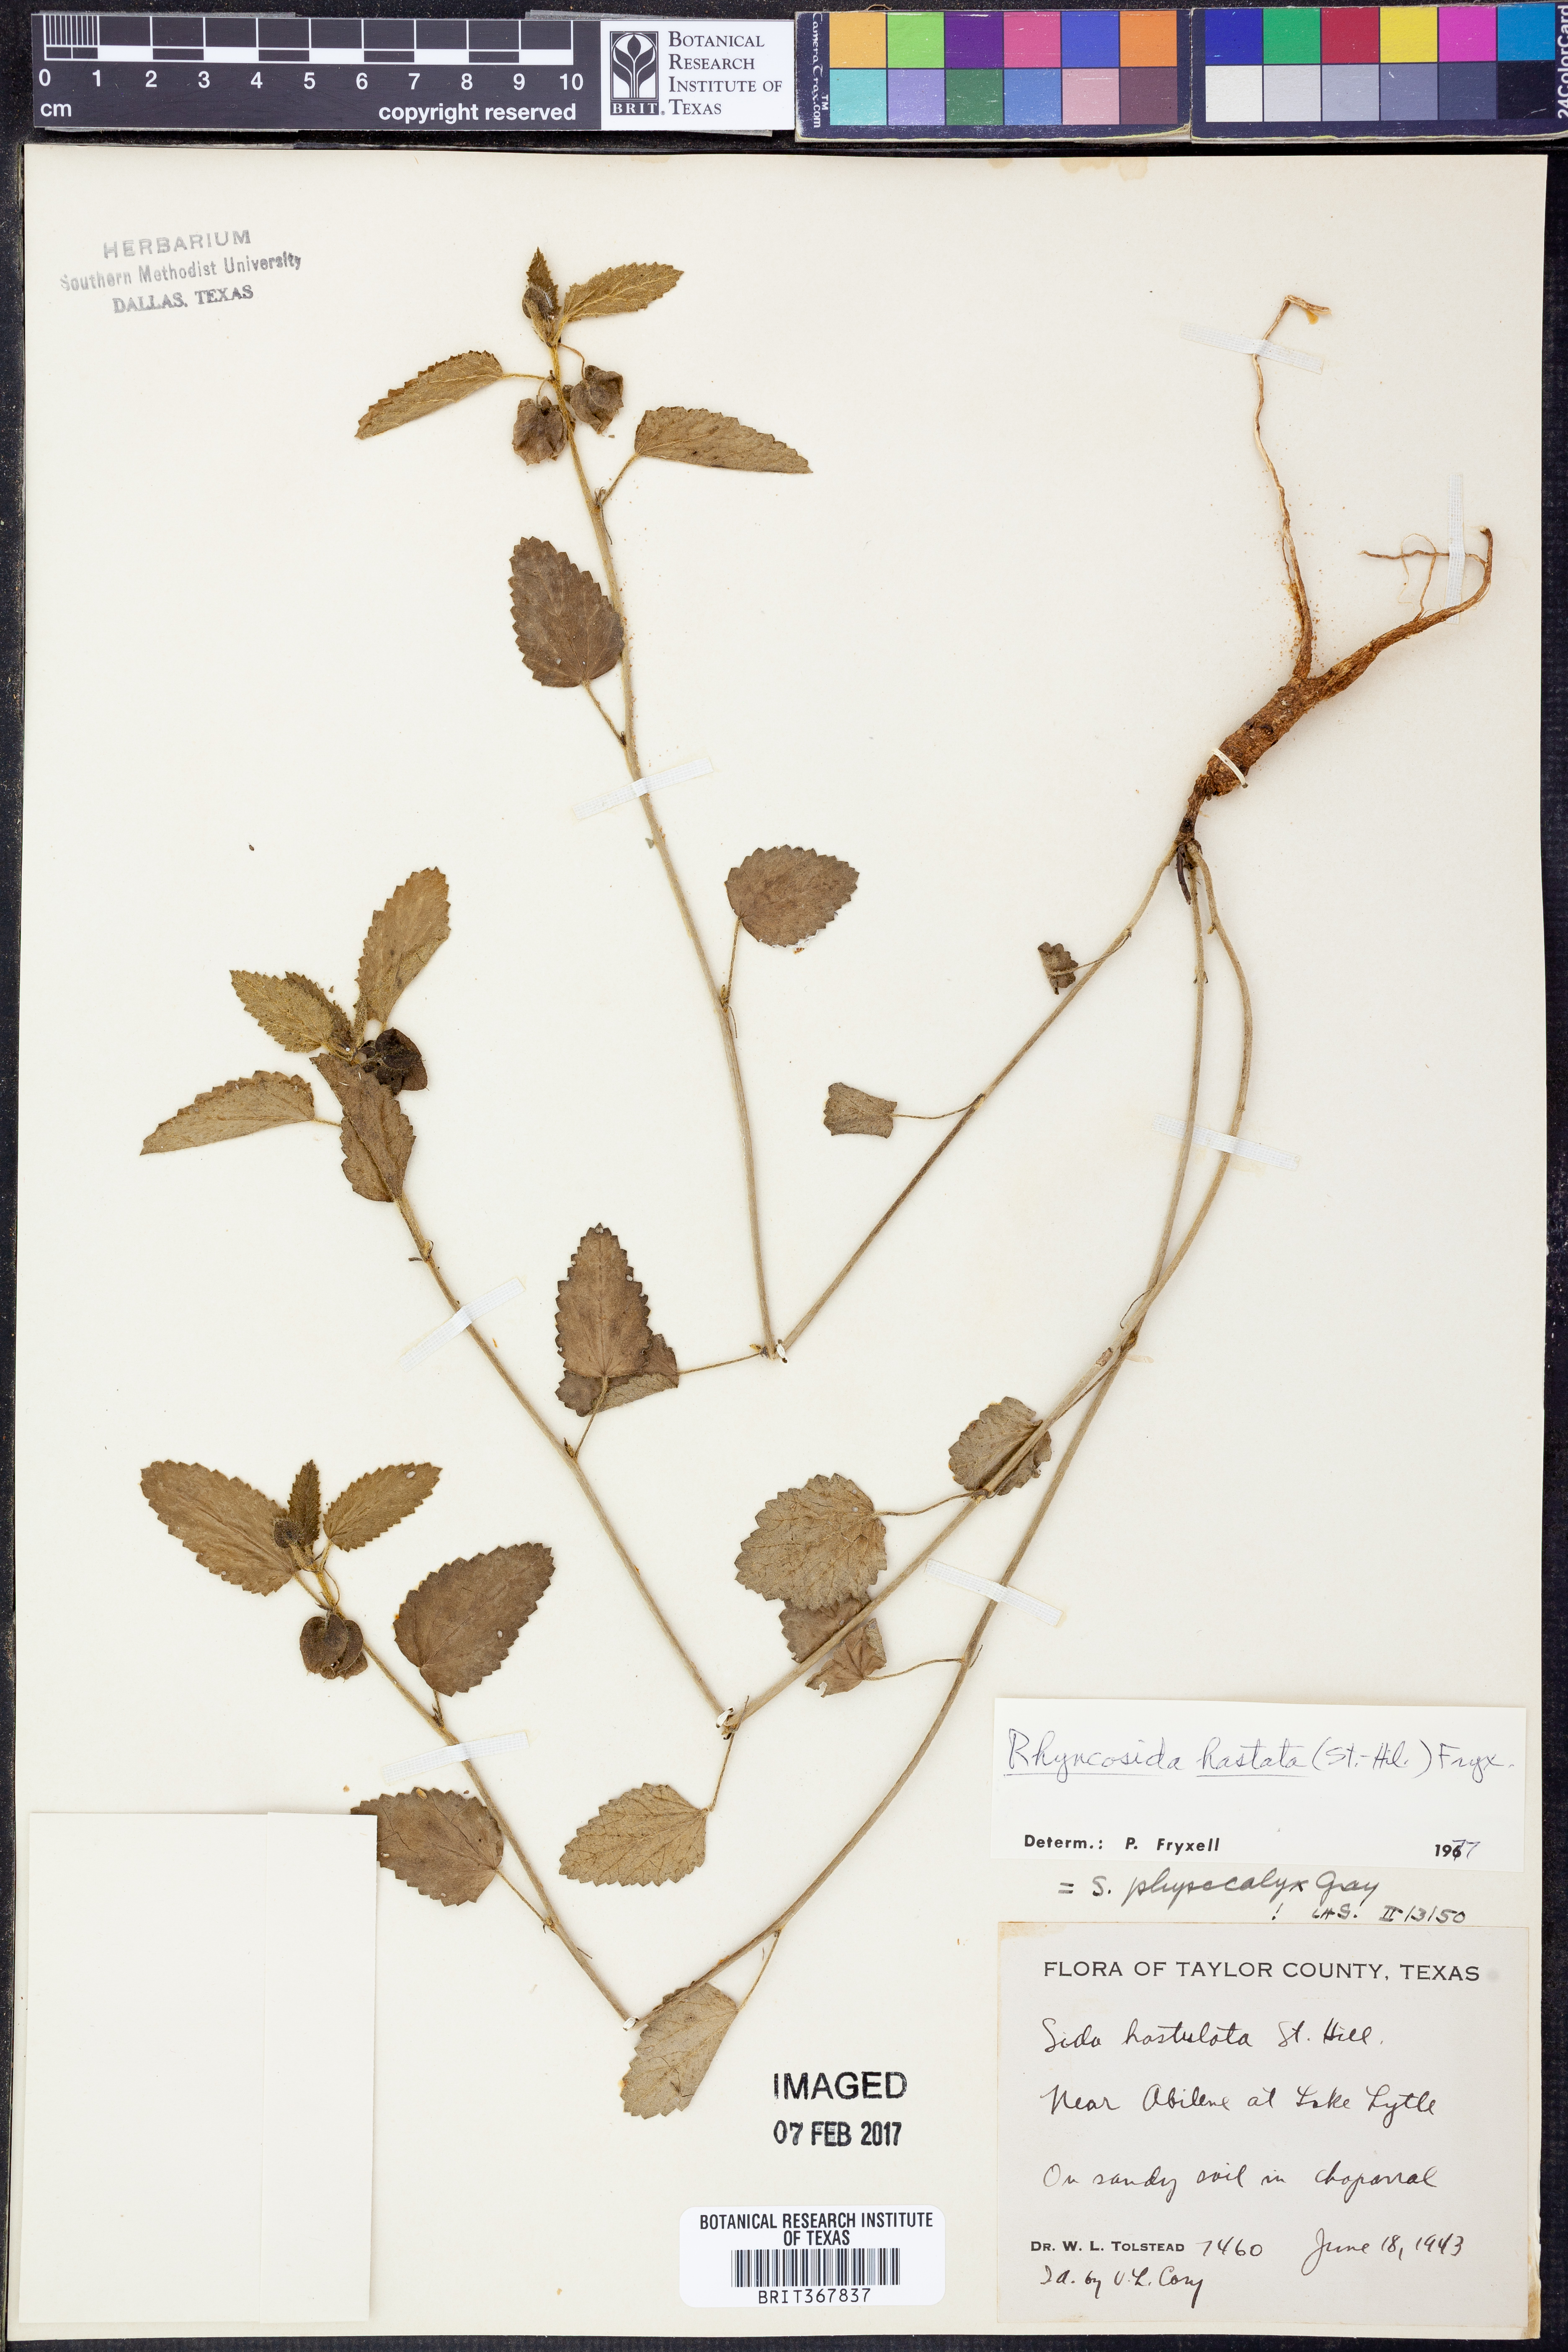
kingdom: Plantae
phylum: Tracheophyta
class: Magnoliopsida
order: Malvales
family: Malvaceae
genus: Rhynchosida
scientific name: Rhynchosida
